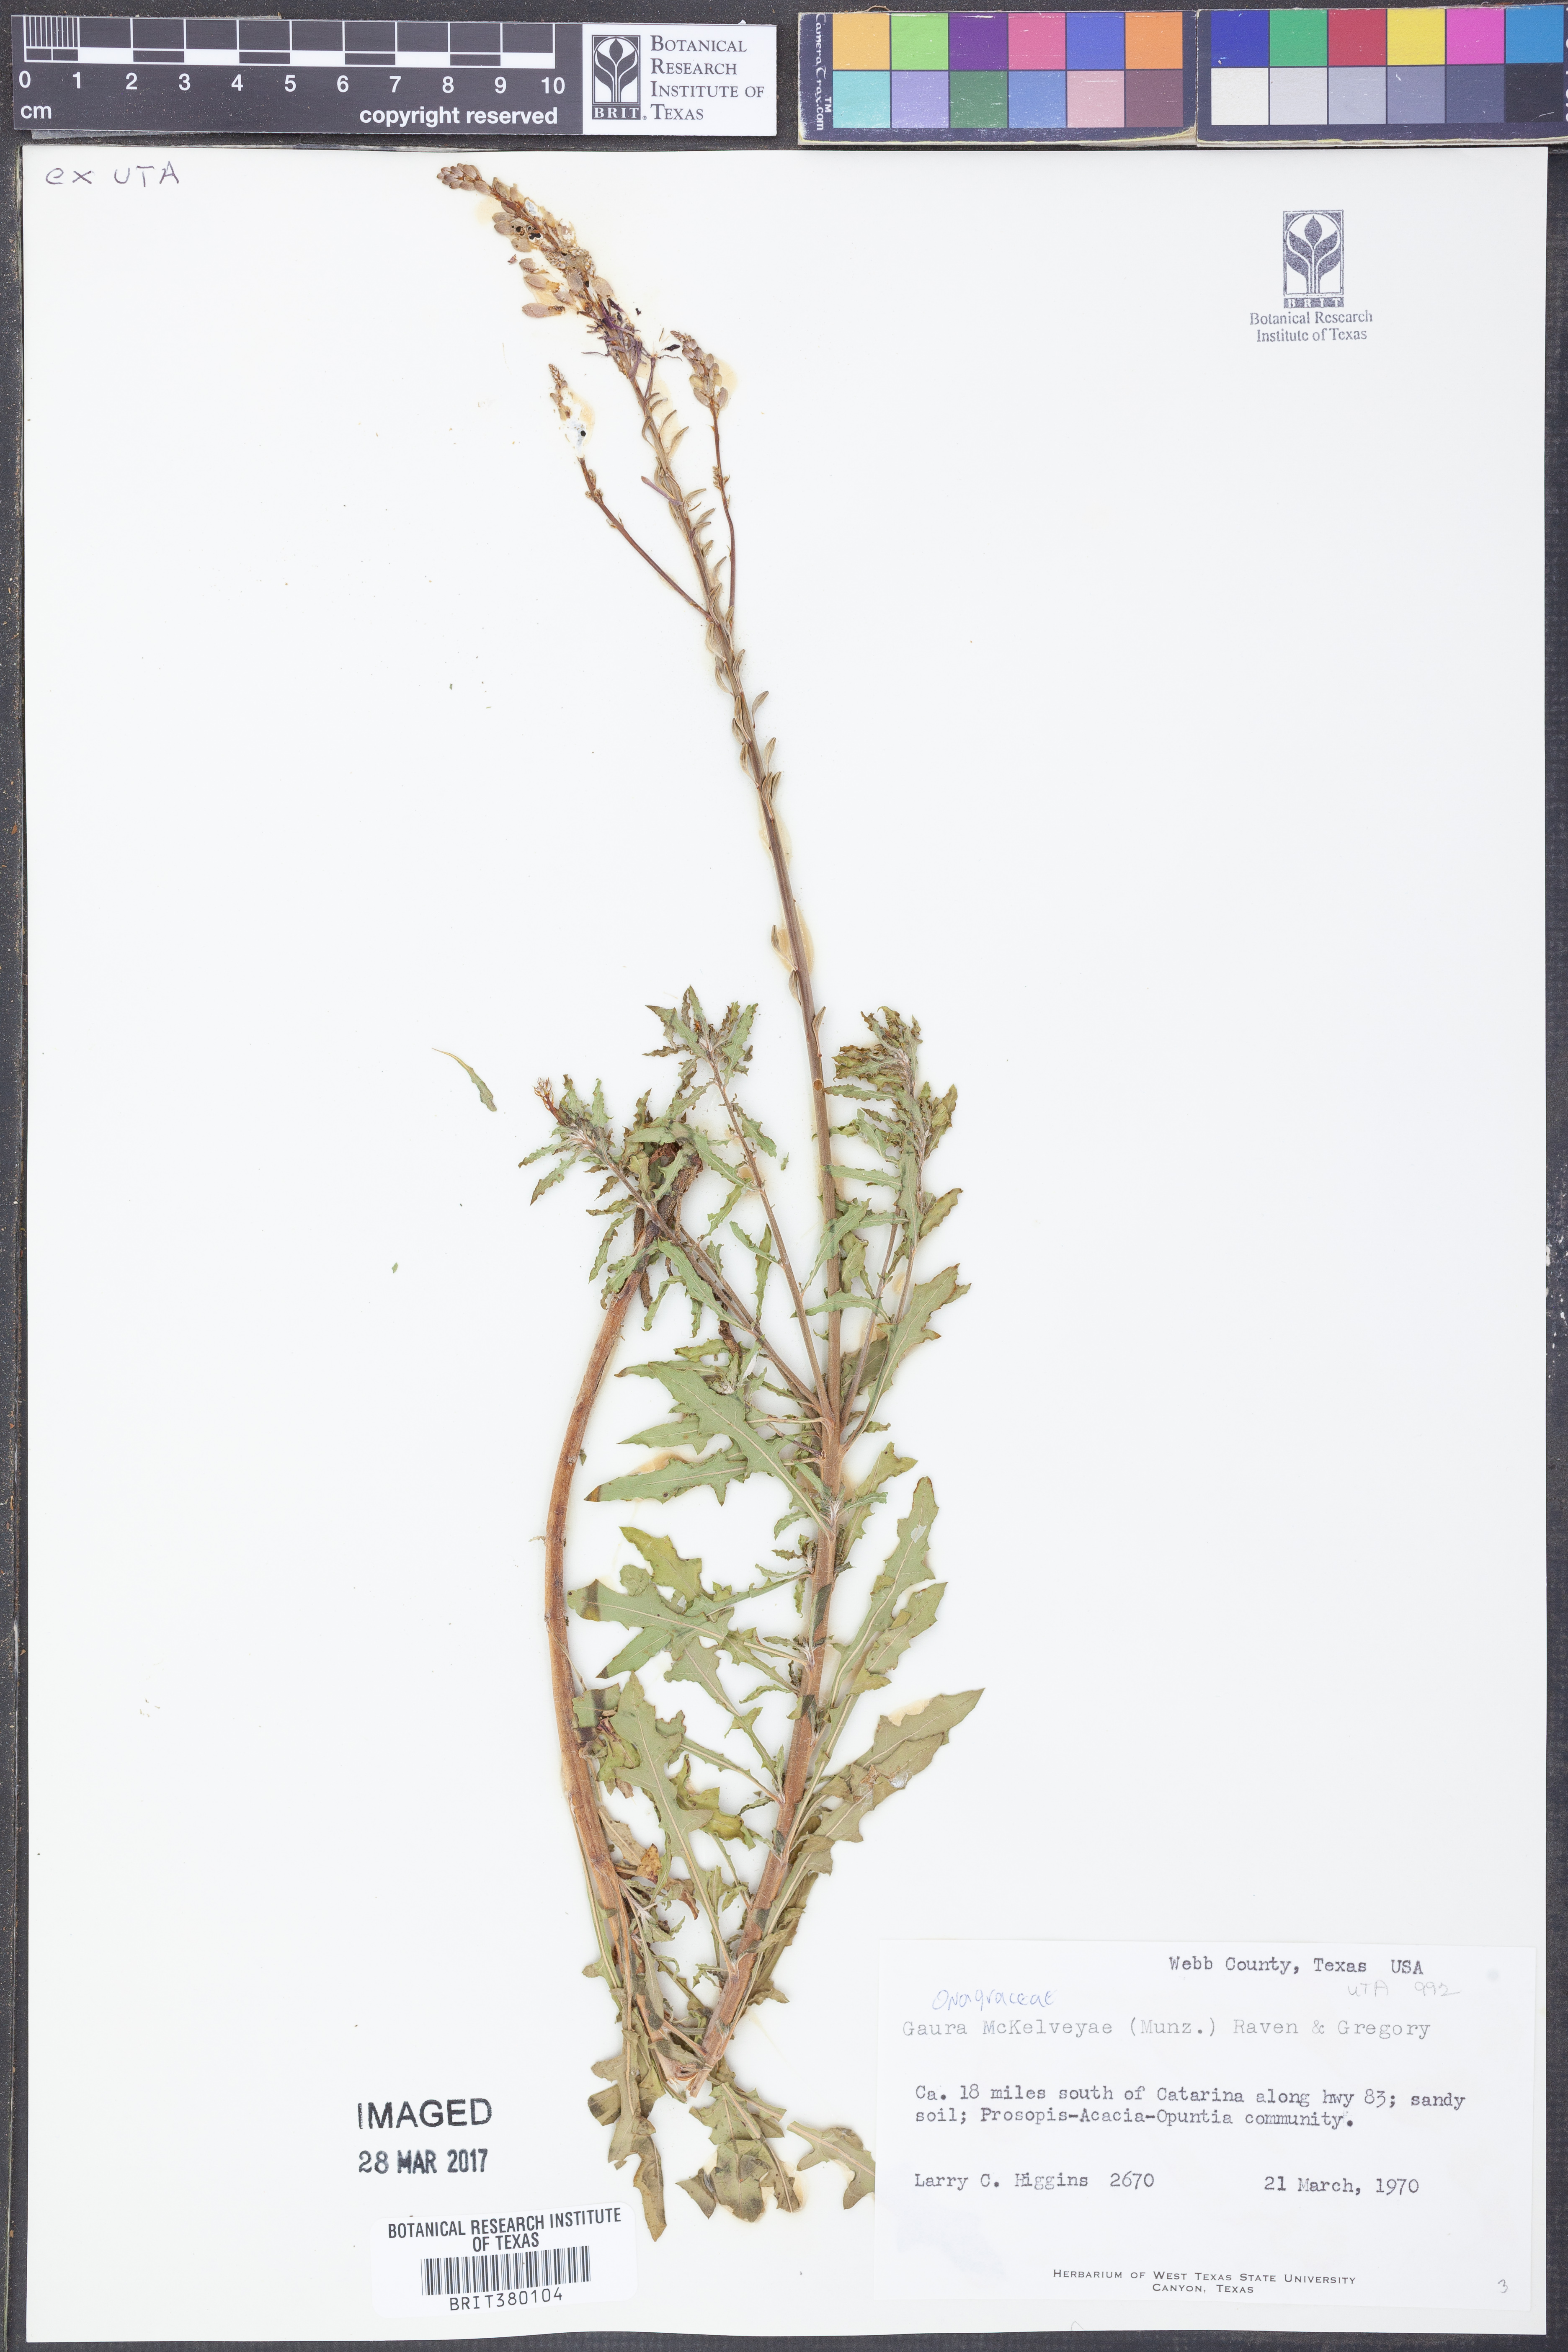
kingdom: Plantae
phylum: Tracheophyta
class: Magnoliopsida
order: Myrtales
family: Onagraceae
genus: Oenothera
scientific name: Oenothera mckelveyae
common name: Mckelvey's beeblossom
